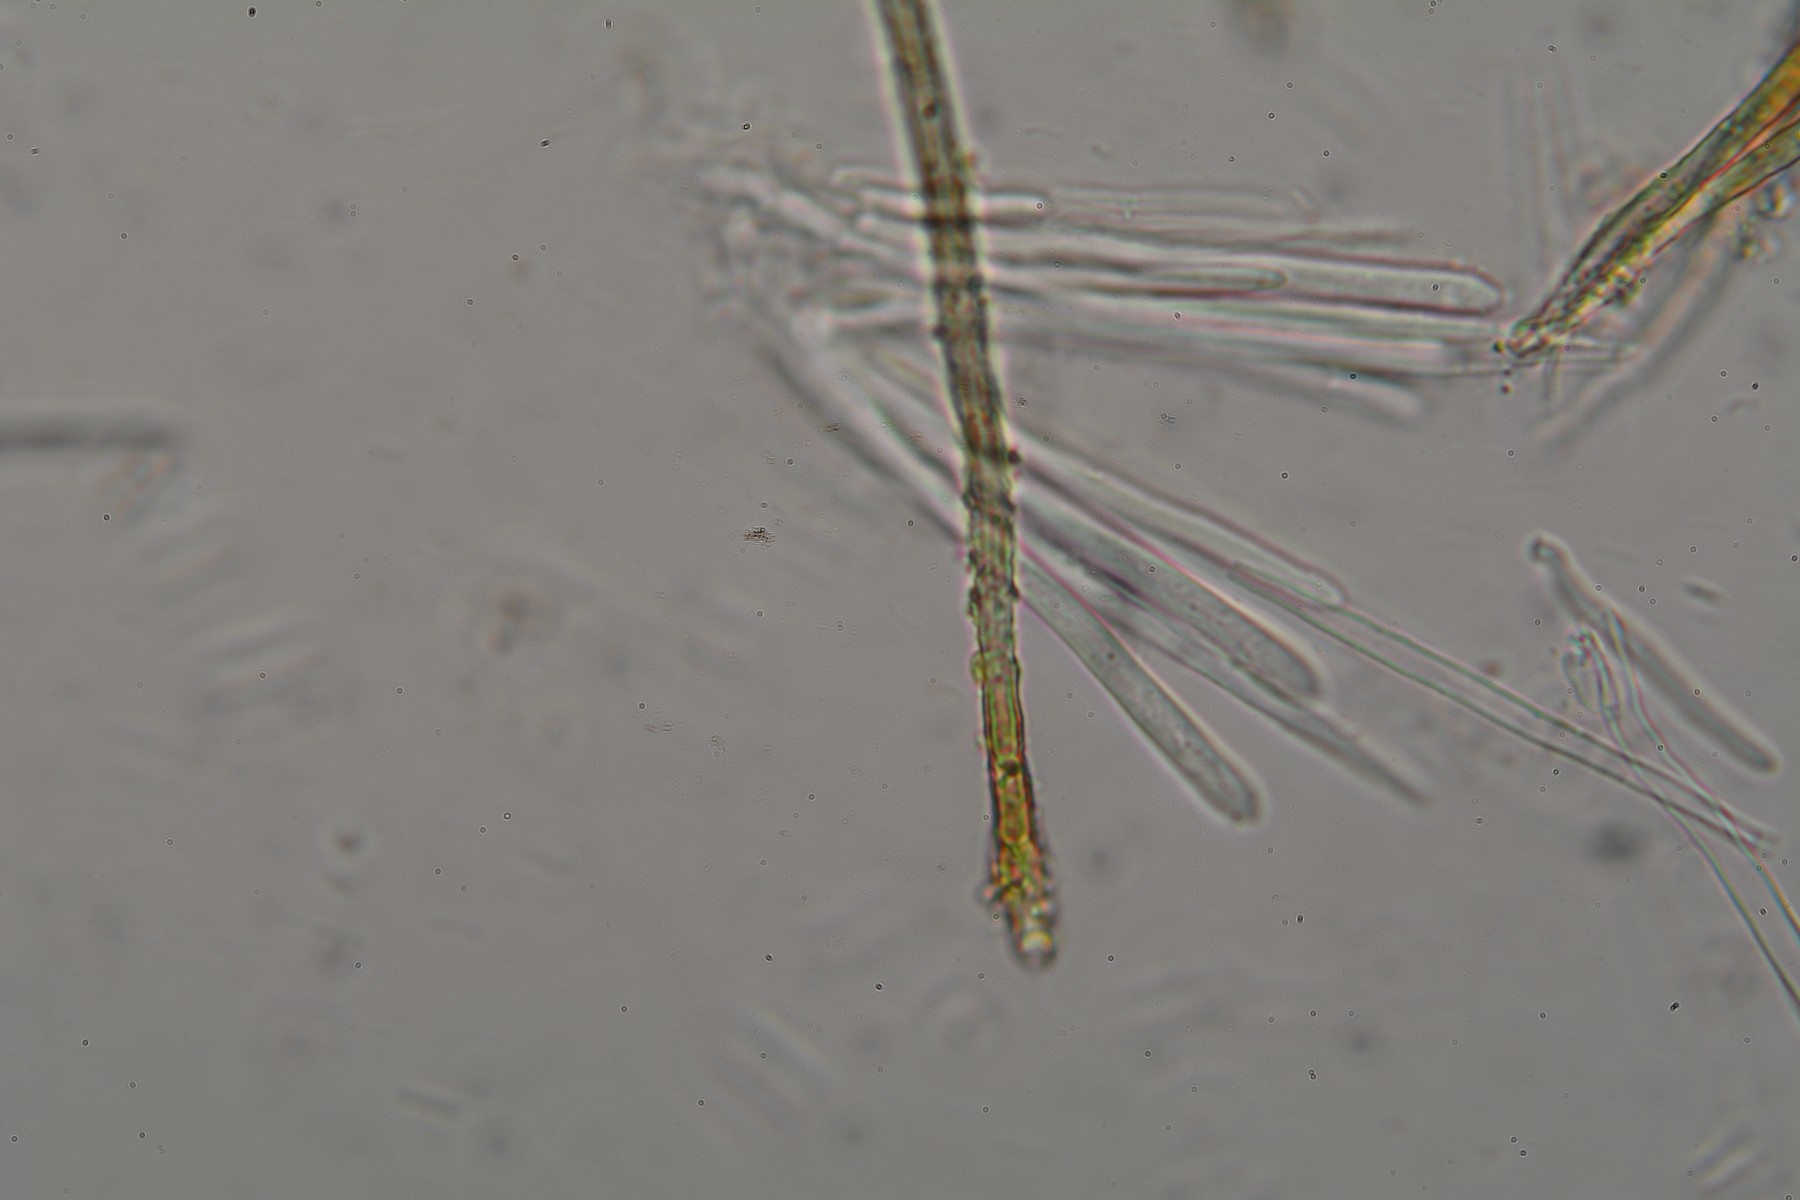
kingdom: Fungi
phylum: Ascomycota
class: Leotiomycetes
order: Helotiales
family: Lachnaceae
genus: Lachnum
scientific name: Lachnum mollissimum
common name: smuk frynseskive
